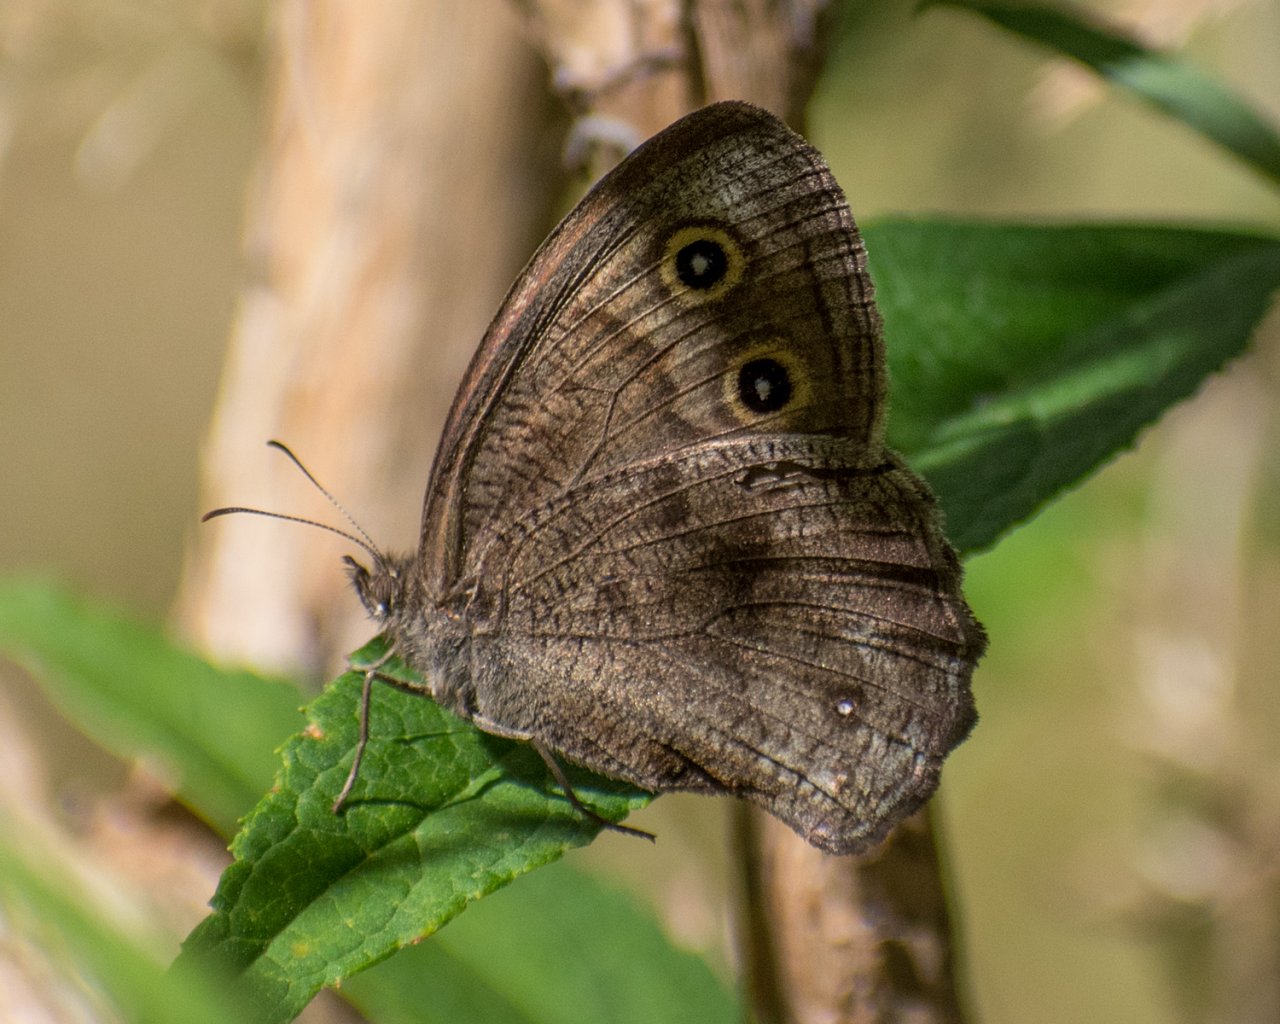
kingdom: Animalia
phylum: Arthropoda
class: Insecta
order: Lepidoptera
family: Nymphalidae
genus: Cercyonis
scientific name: Cercyonis pegala
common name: Common Wood-Nymph
